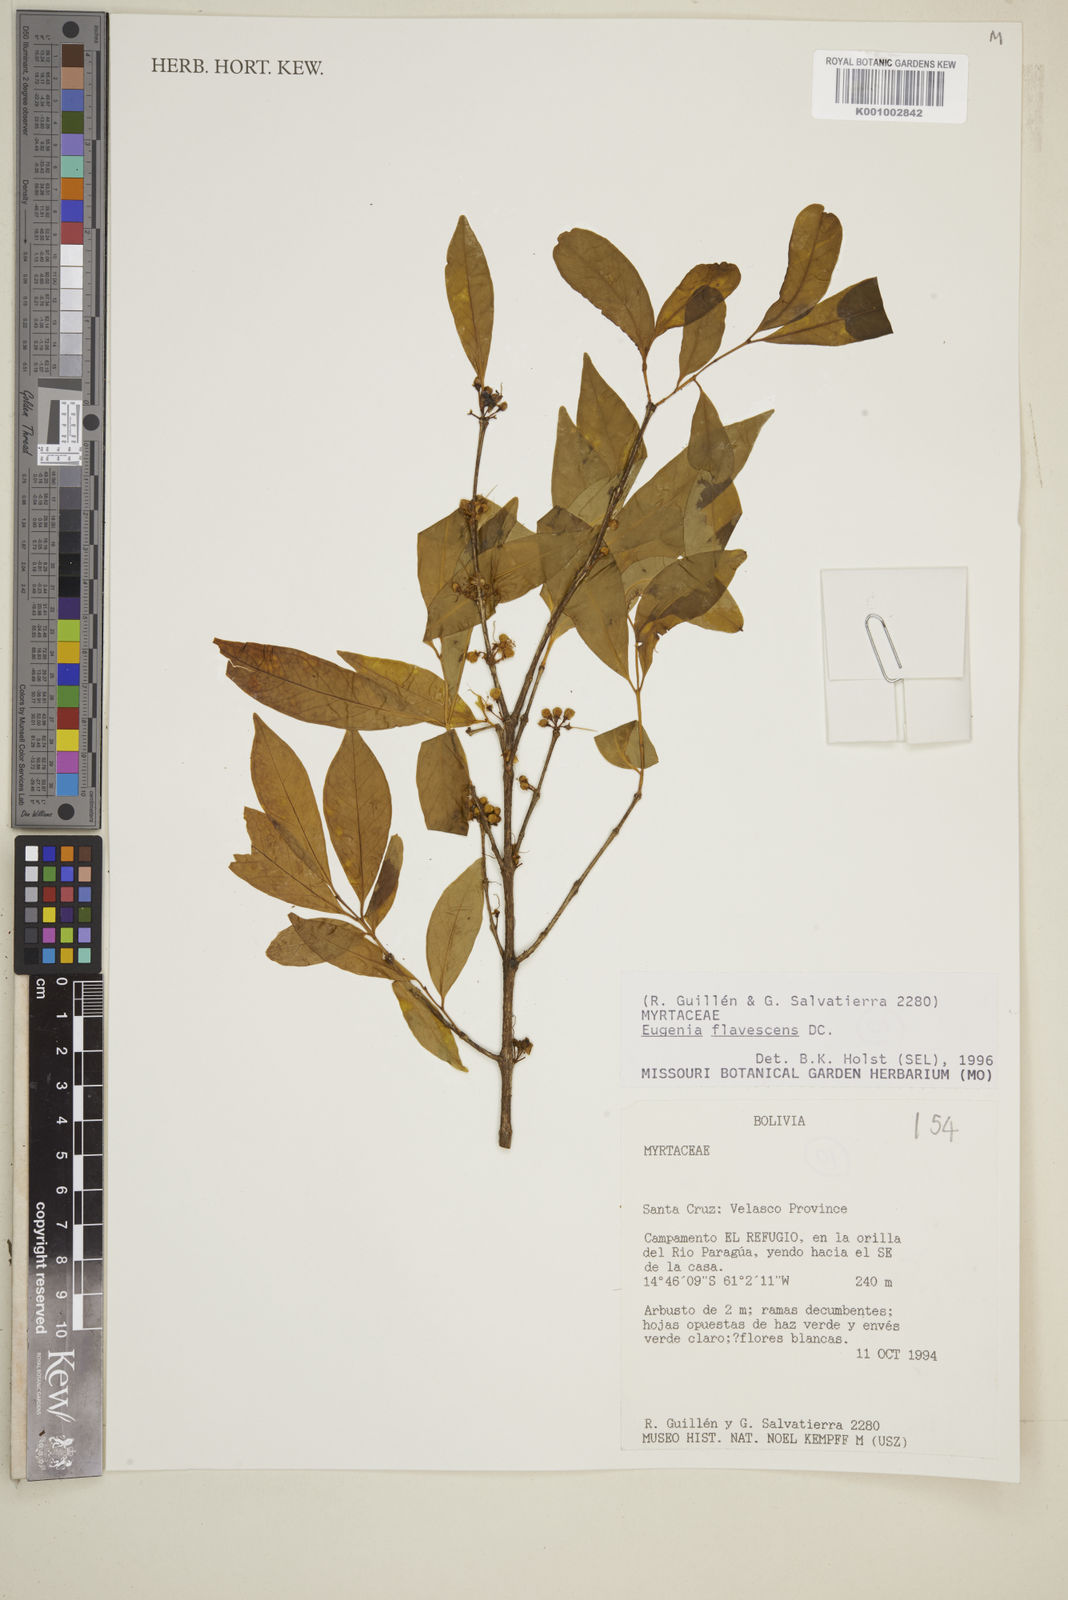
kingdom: Plantae
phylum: Tracheophyta
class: Magnoliopsida
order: Myrtales
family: Myrtaceae
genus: Eugenia
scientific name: Eugenia flavescens
